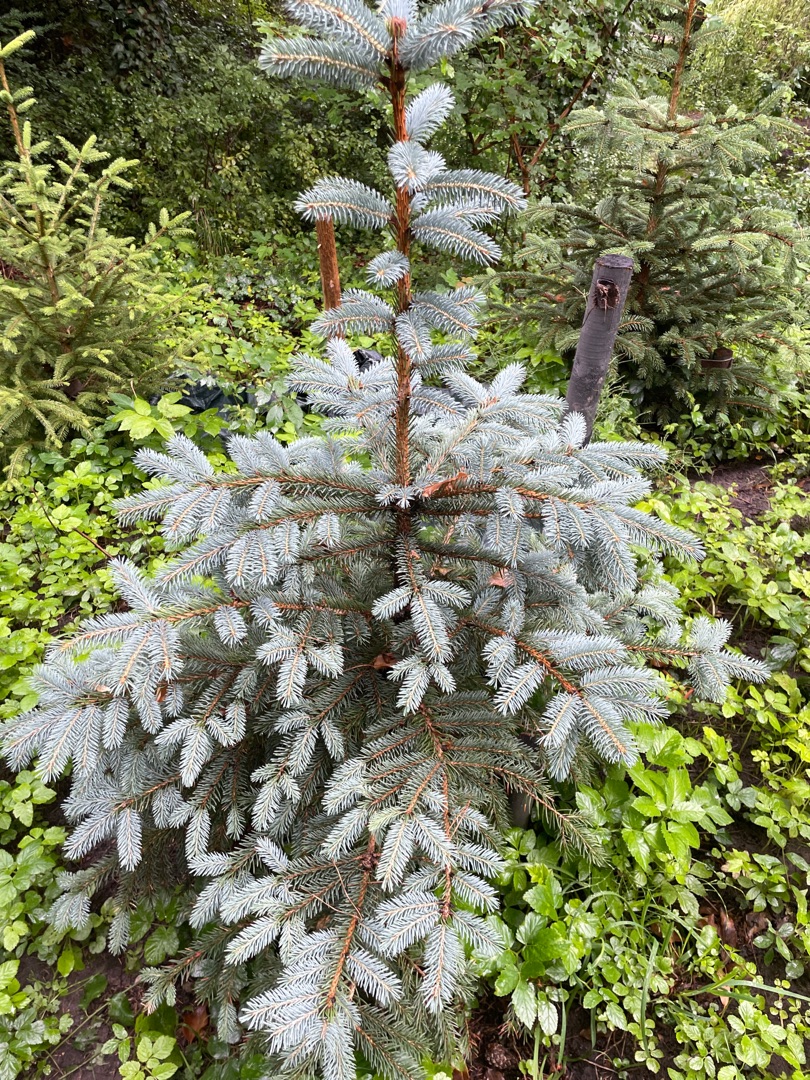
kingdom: Plantae
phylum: Tracheophyta
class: Pinopsida
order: Pinales
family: Pinaceae
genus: Picea
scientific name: Picea pungens
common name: Blå-gran
